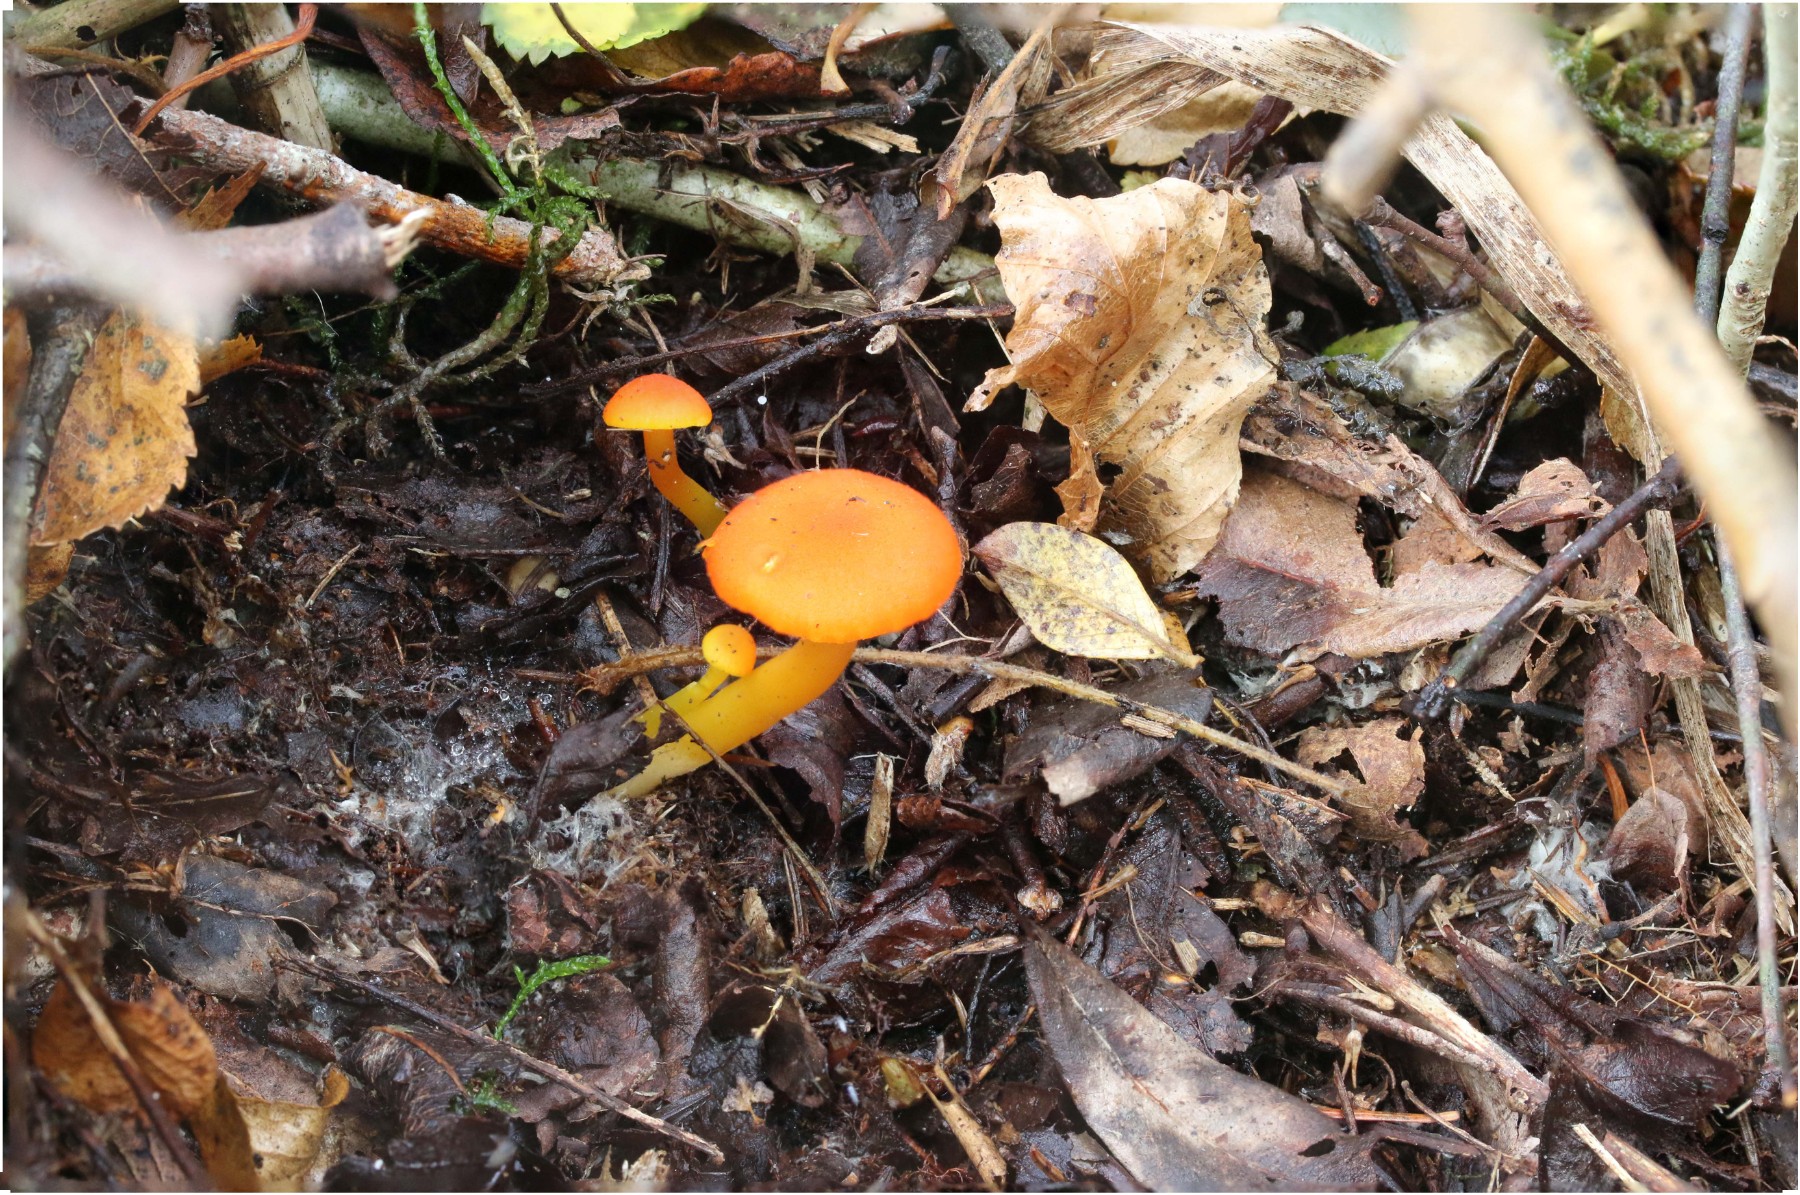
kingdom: Fungi
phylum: Basidiomycota
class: Agaricomycetes
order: Agaricales
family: Hygrophoraceae
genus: Hygrocybe
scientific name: Hygrocybe miniata
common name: mønje-vokshat
